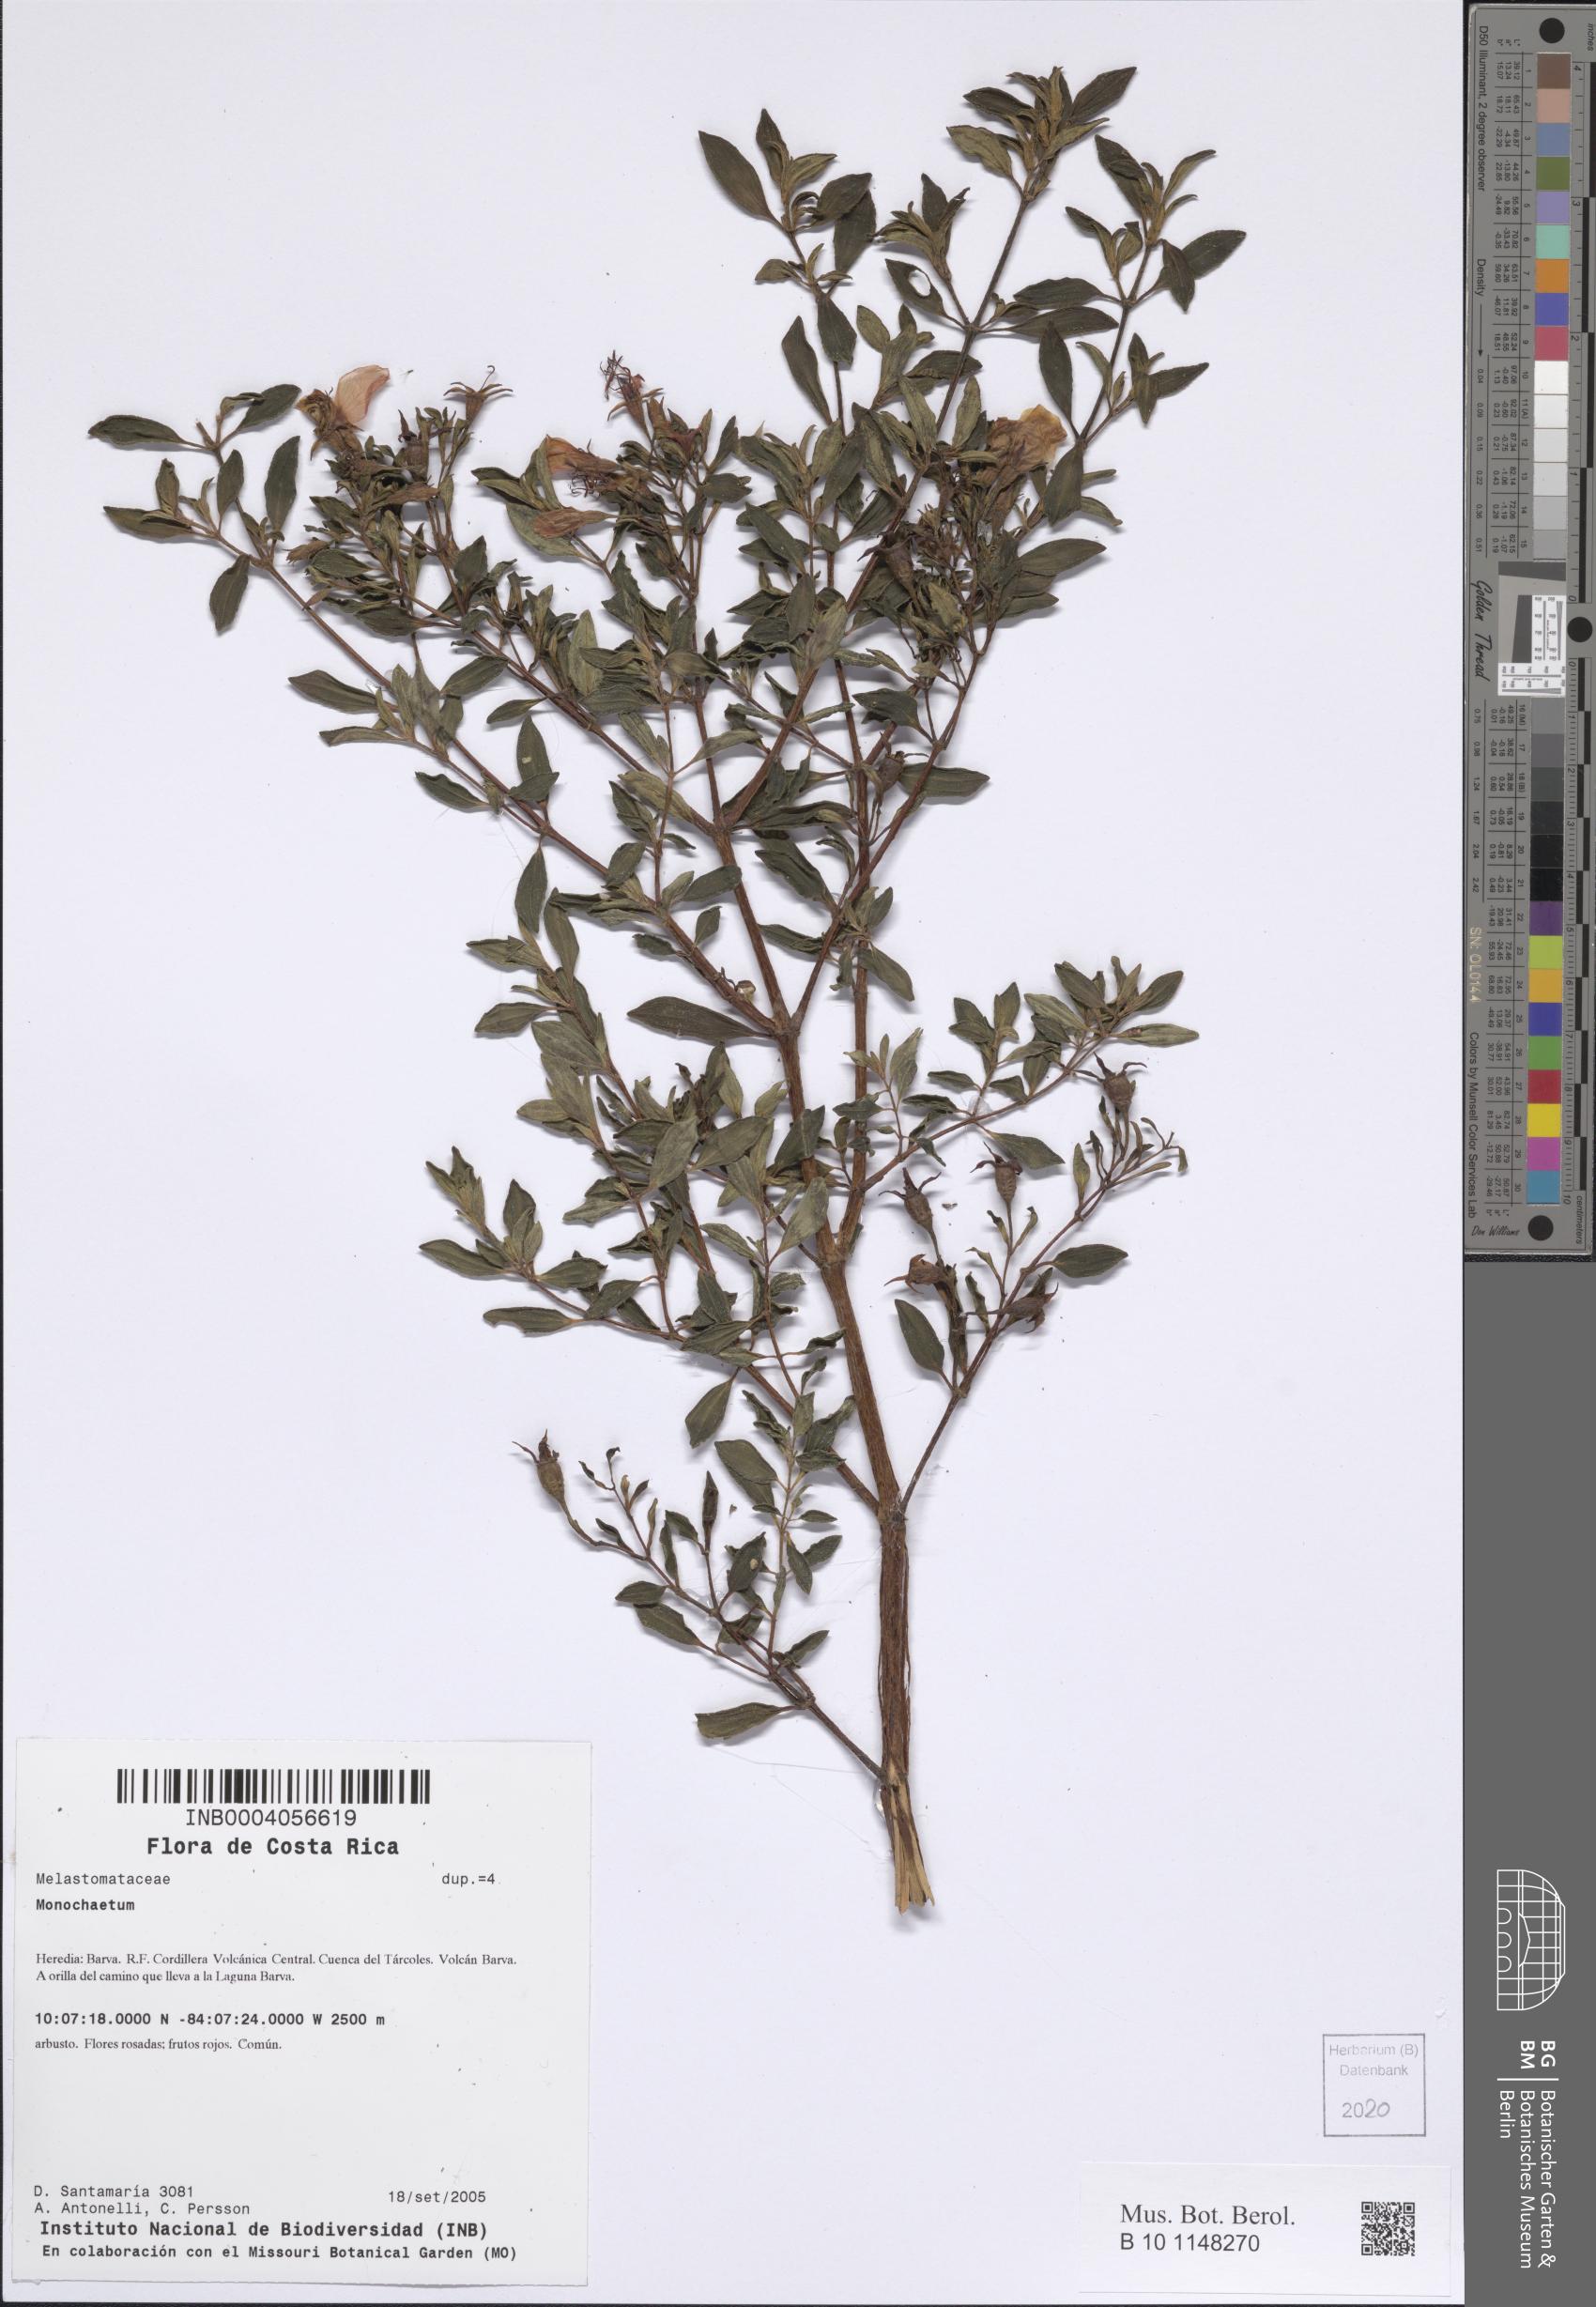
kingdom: Plantae
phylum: Tracheophyta
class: Magnoliopsida
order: Myrtales
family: Melastomataceae
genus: Monochaetum
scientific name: Monochaetum
